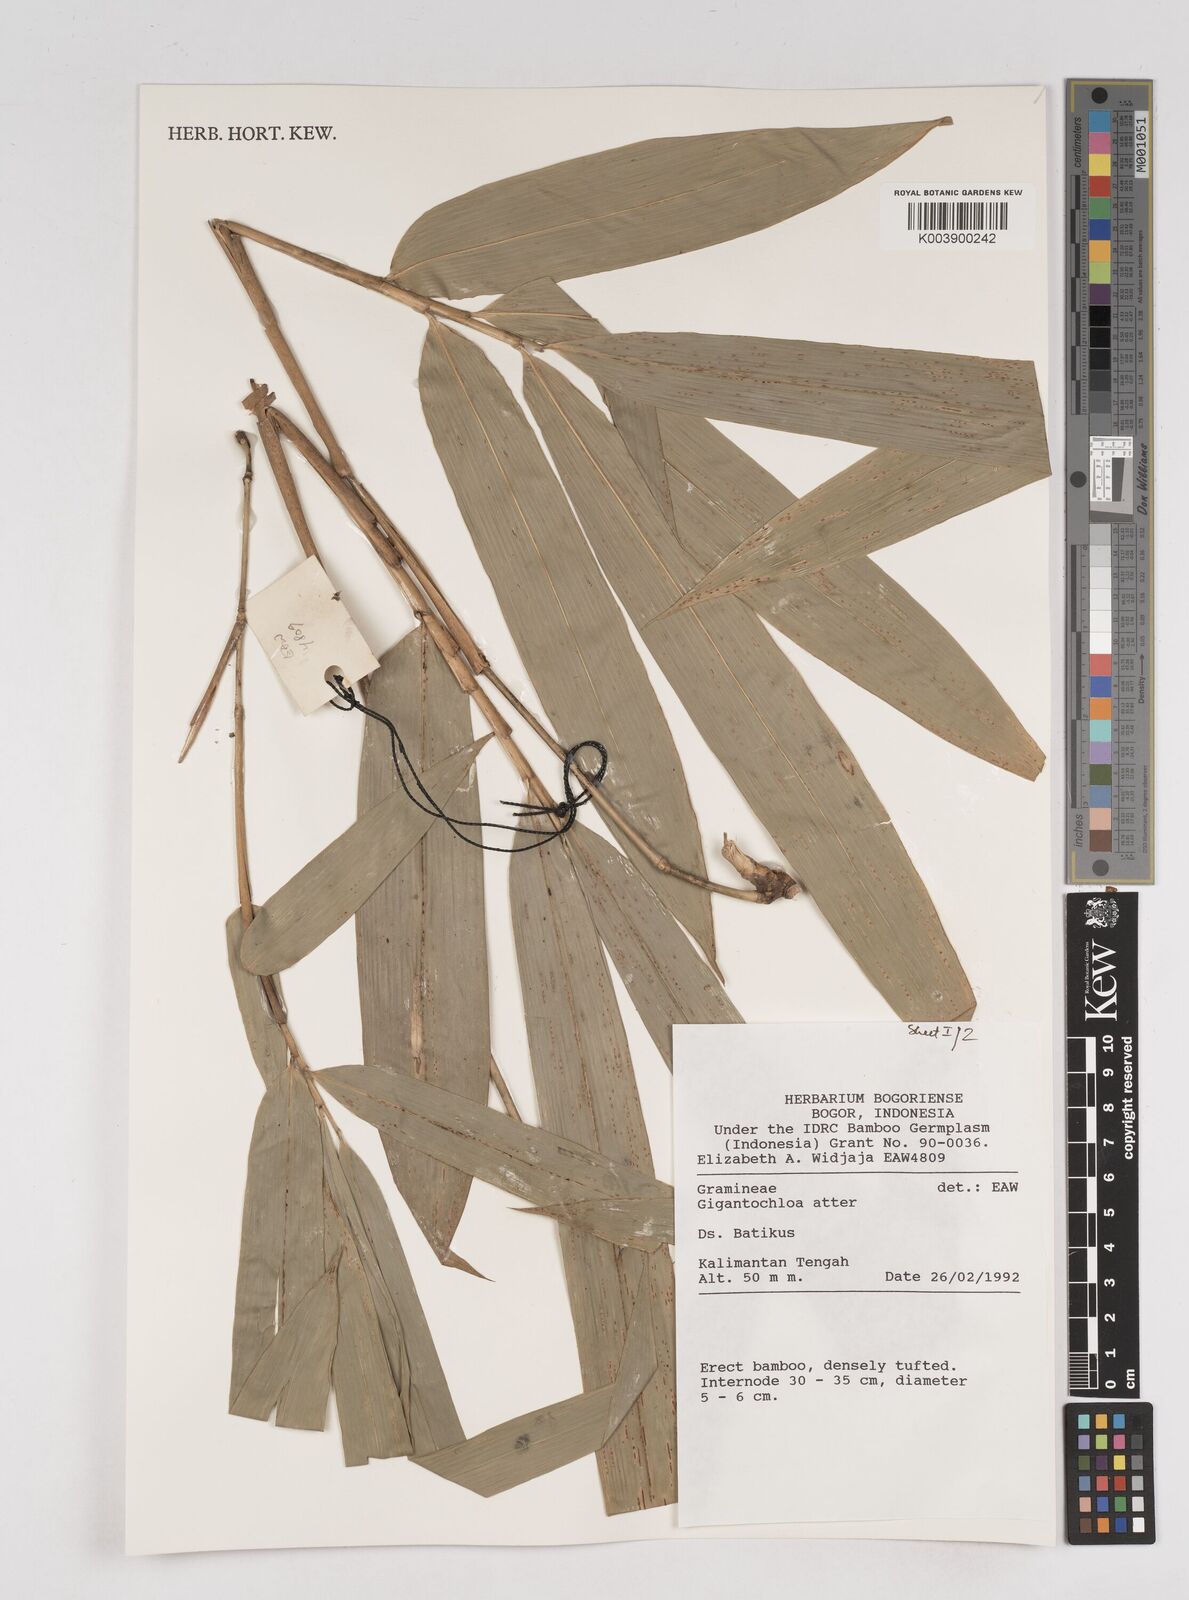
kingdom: Plantae
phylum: Tracheophyta
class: Liliopsida
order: Poales
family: Poaceae
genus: Gigantochloa
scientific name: Gigantochloa atter
